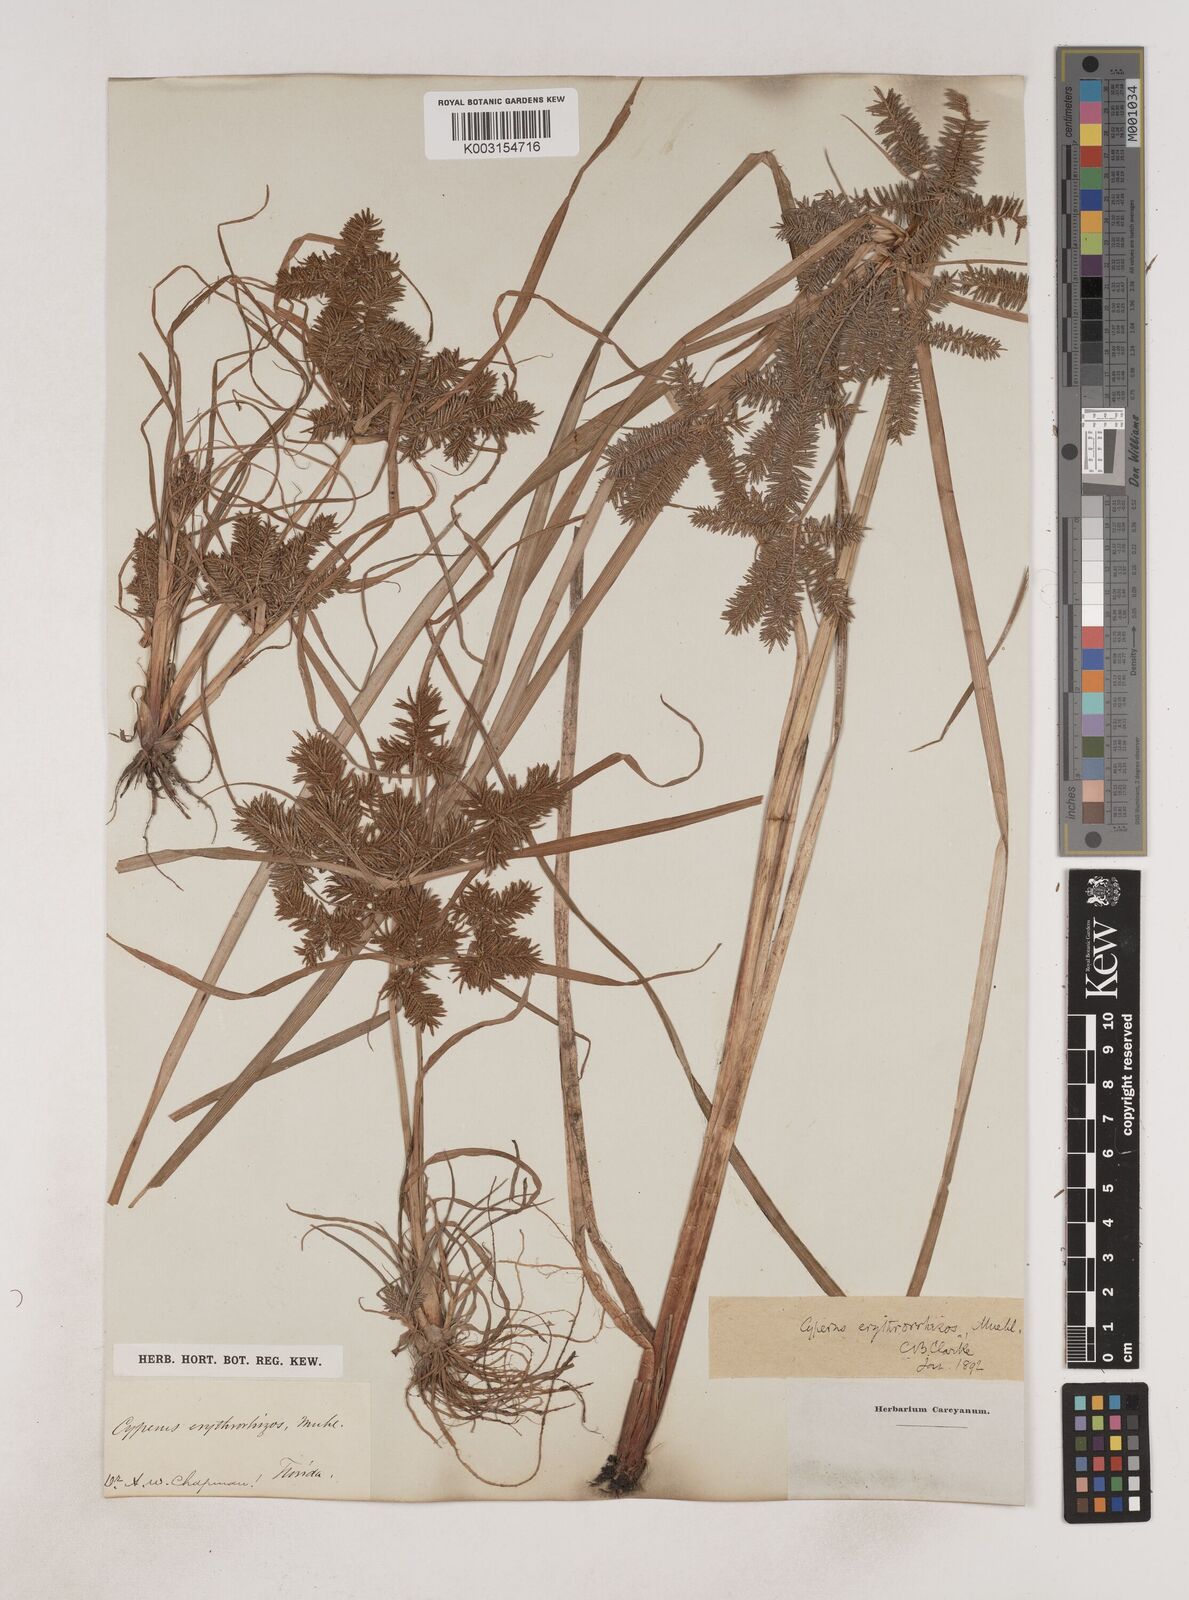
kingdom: Plantae
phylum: Tracheophyta
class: Liliopsida
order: Poales
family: Cyperaceae
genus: Cyperus
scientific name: Cyperus erythrorhizos
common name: Red-root flat sedge
